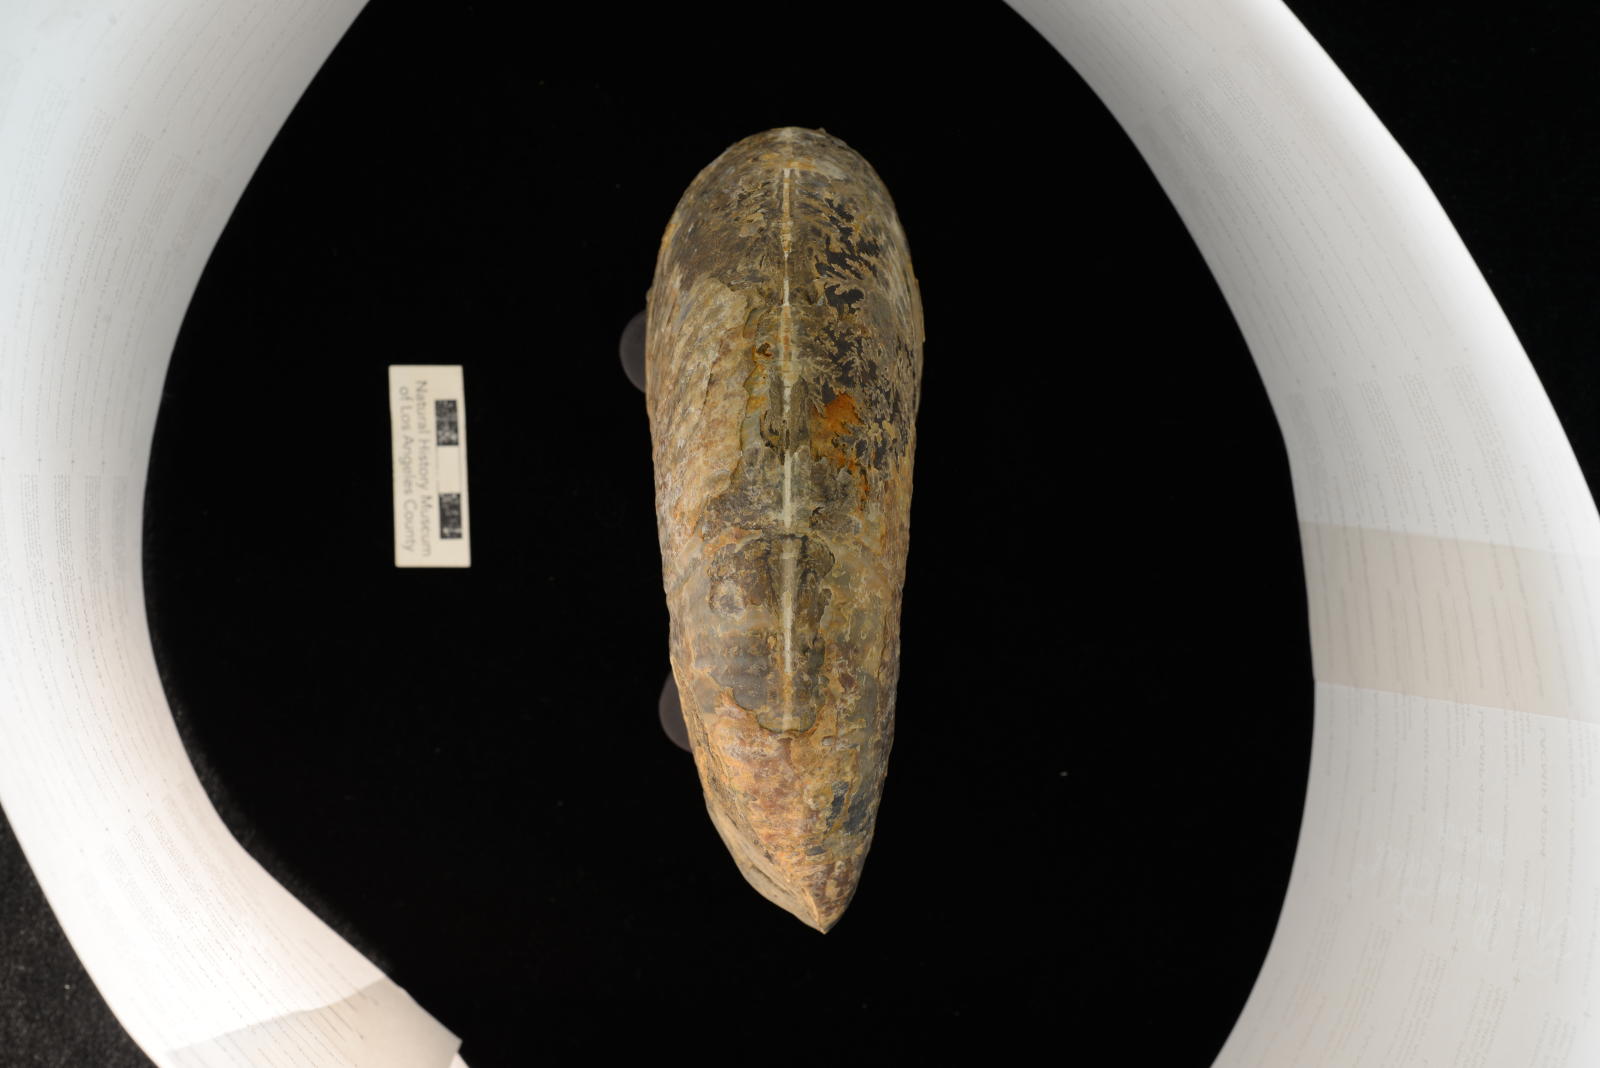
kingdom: Animalia
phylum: Mollusca
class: Cephalopoda
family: Desmoceratidae
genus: Pachydesmoceras
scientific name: Pachydesmoceras colusaense
